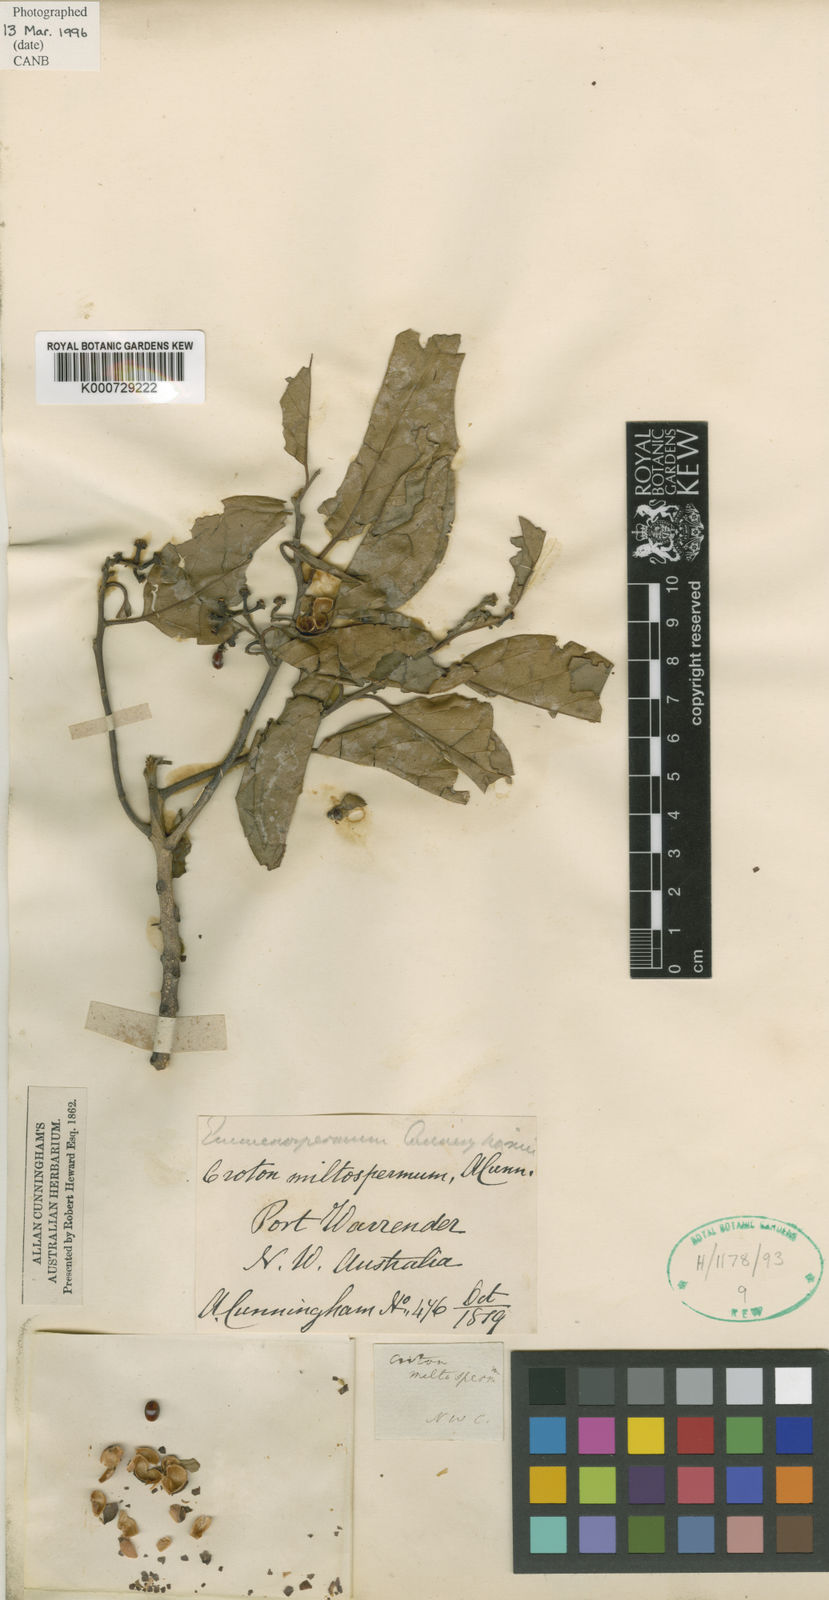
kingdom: Plantae
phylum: Tracheophyta
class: Magnoliopsida
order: Rosales
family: Rhamnaceae
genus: Emmenosperma
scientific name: Emmenosperma cunninghamii
